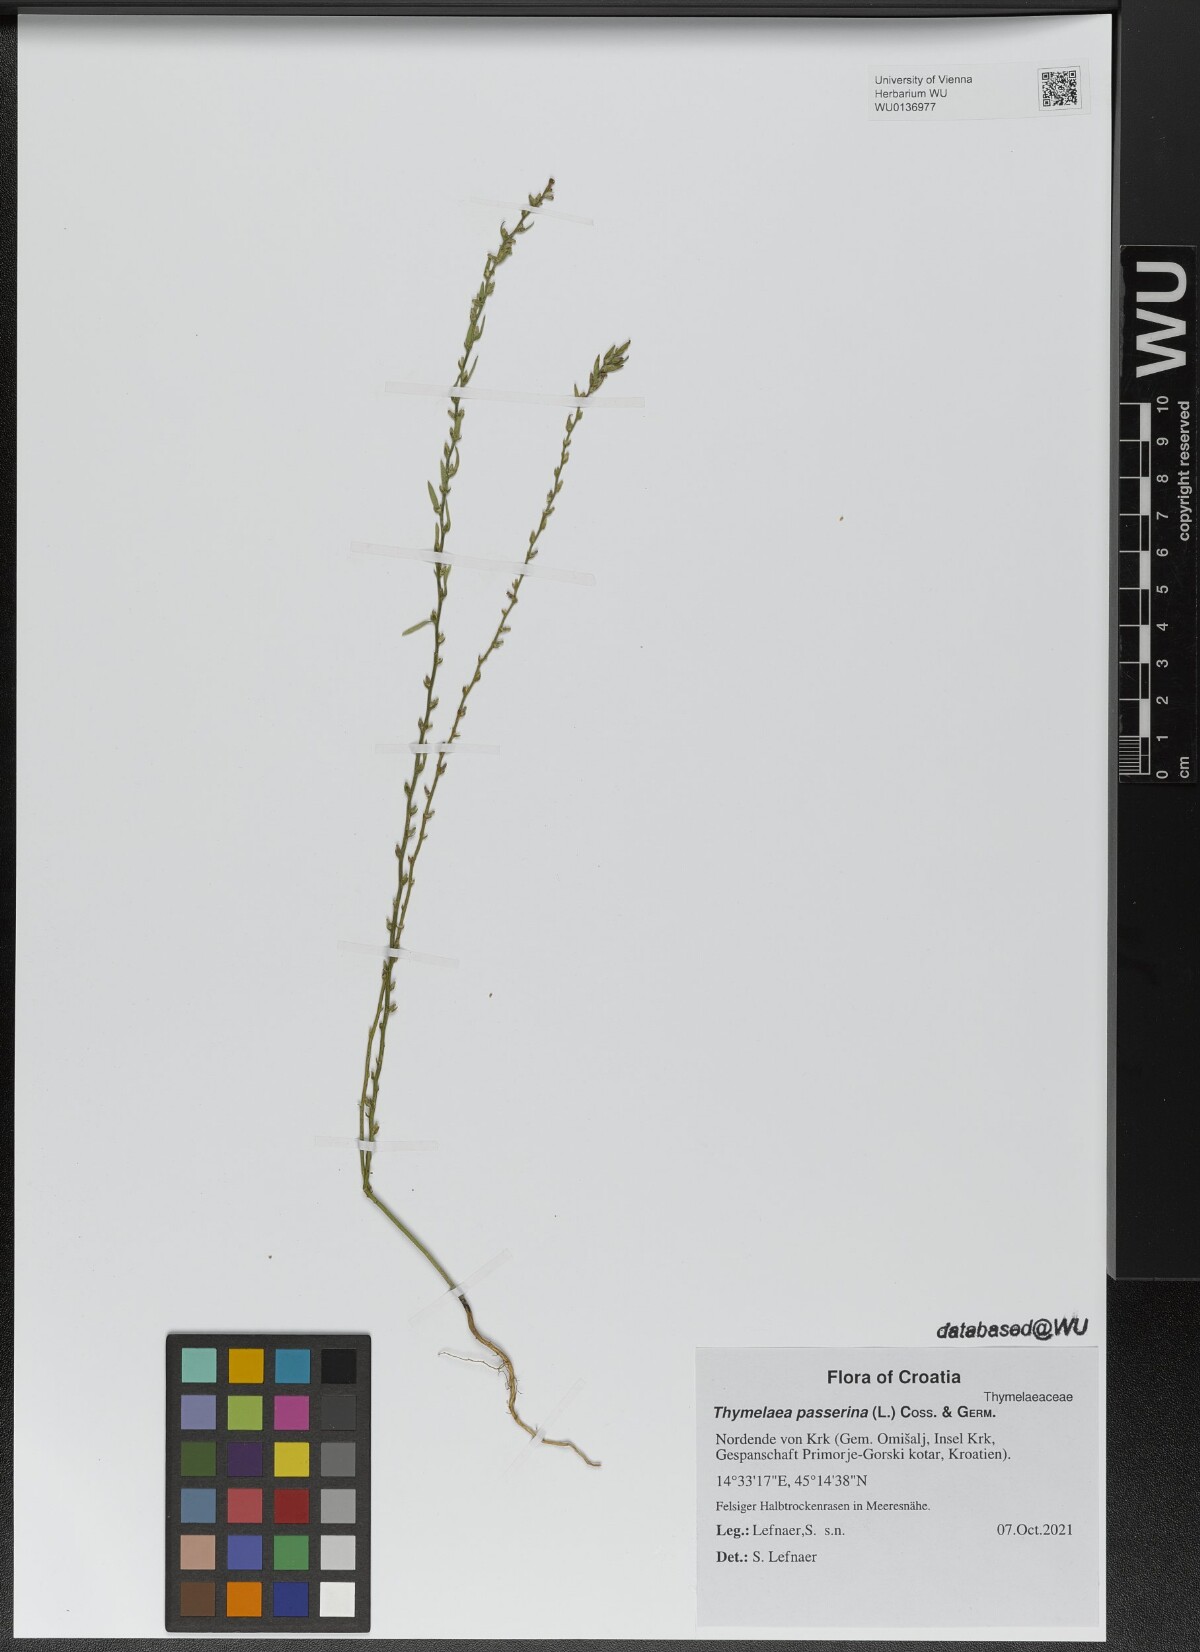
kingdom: Plantae
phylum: Tracheophyta
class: Magnoliopsida
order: Malvales
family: Thymelaeaceae
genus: Thymelaea
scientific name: Thymelaea passerina
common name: Annual thymelaea
